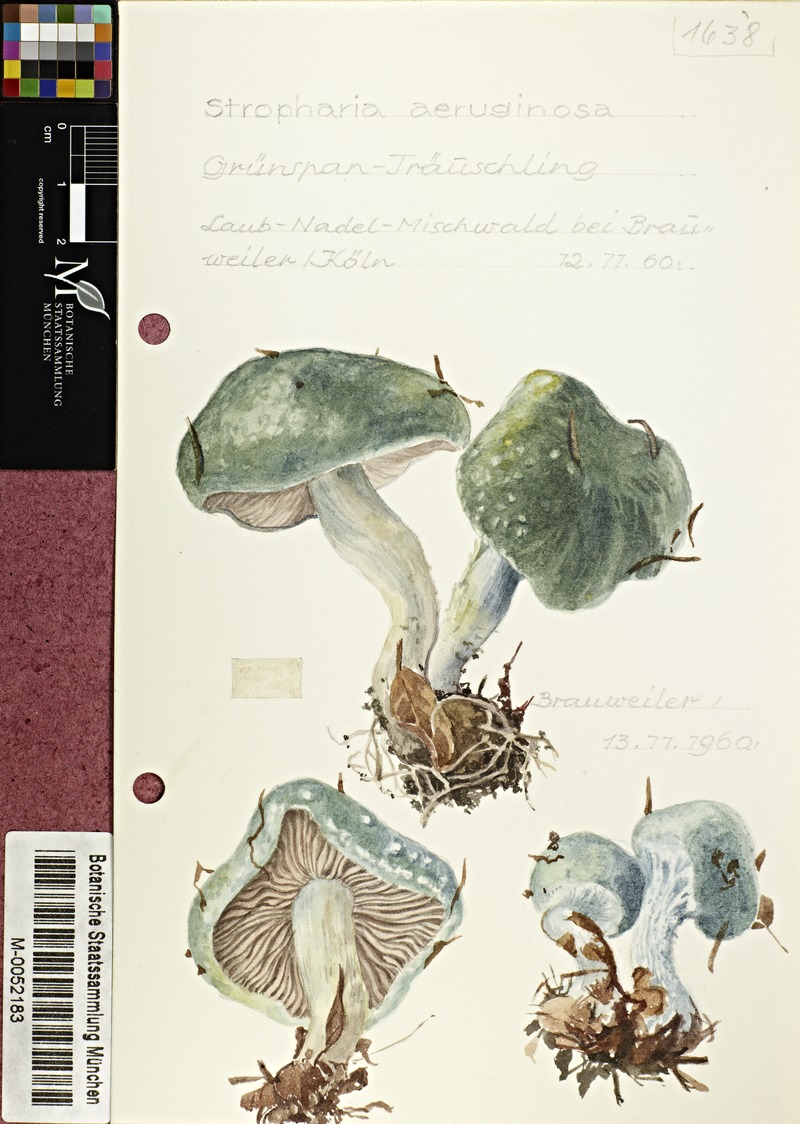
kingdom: Fungi
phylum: Basidiomycota
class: Agaricomycetes
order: Agaricales
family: Strophariaceae
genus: Stropharia
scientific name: Stropharia aeruginosa
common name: Verdigris roundhead
